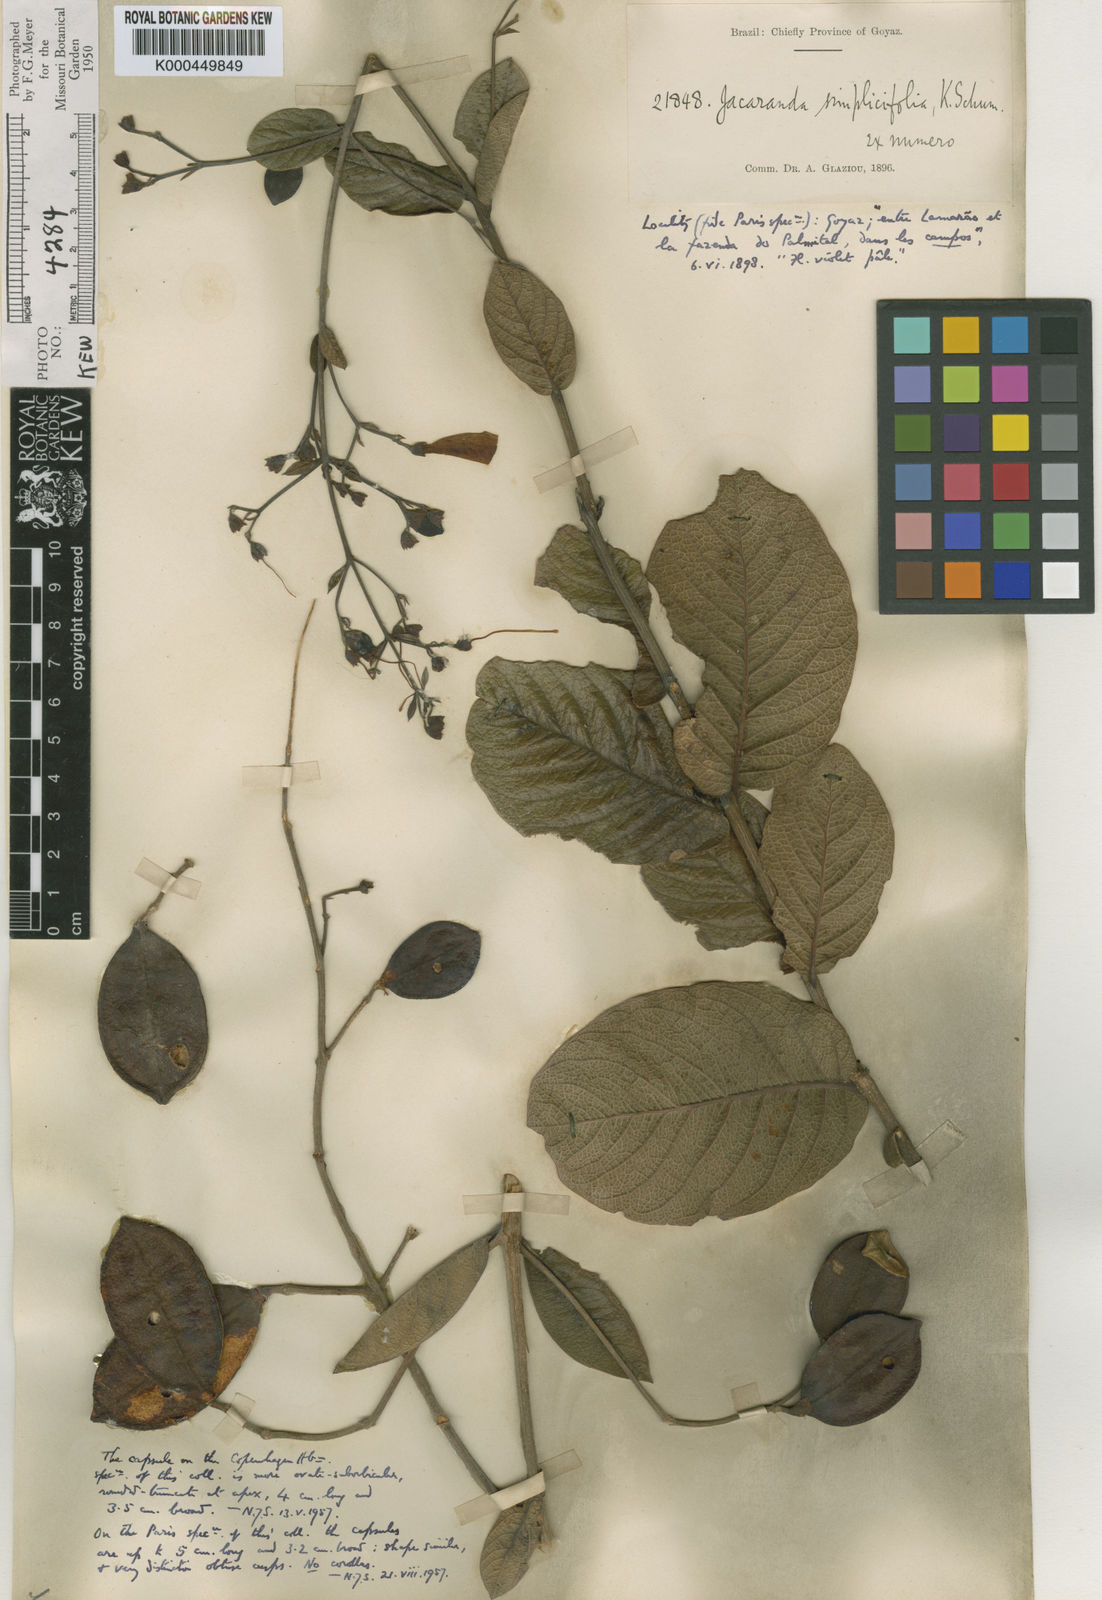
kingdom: Plantae
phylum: Tracheophyta
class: Magnoliopsida
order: Lamiales
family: Bignoniaceae
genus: Jacaranda
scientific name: Jacaranda simplicifolia
